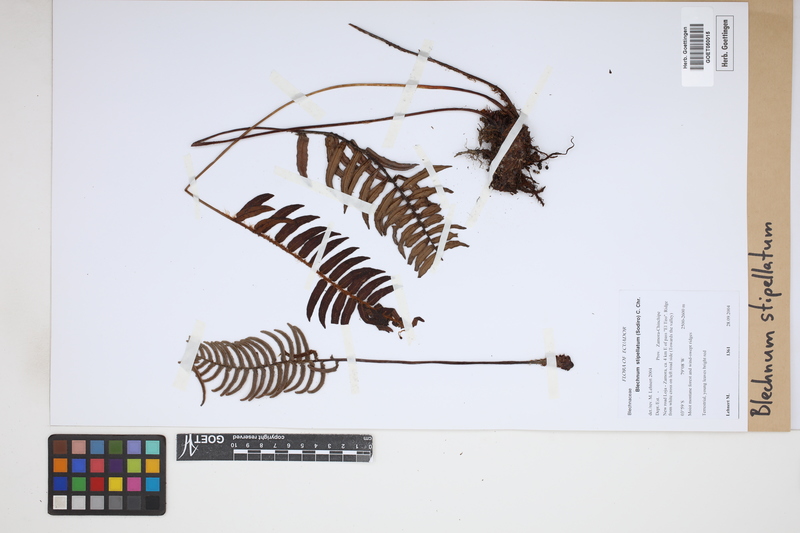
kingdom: Plantae
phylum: Tracheophyta
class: Polypodiopsida
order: Polypodiales
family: Blechnaceae
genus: Parablechnum
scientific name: Parablechnum stipitellatum
